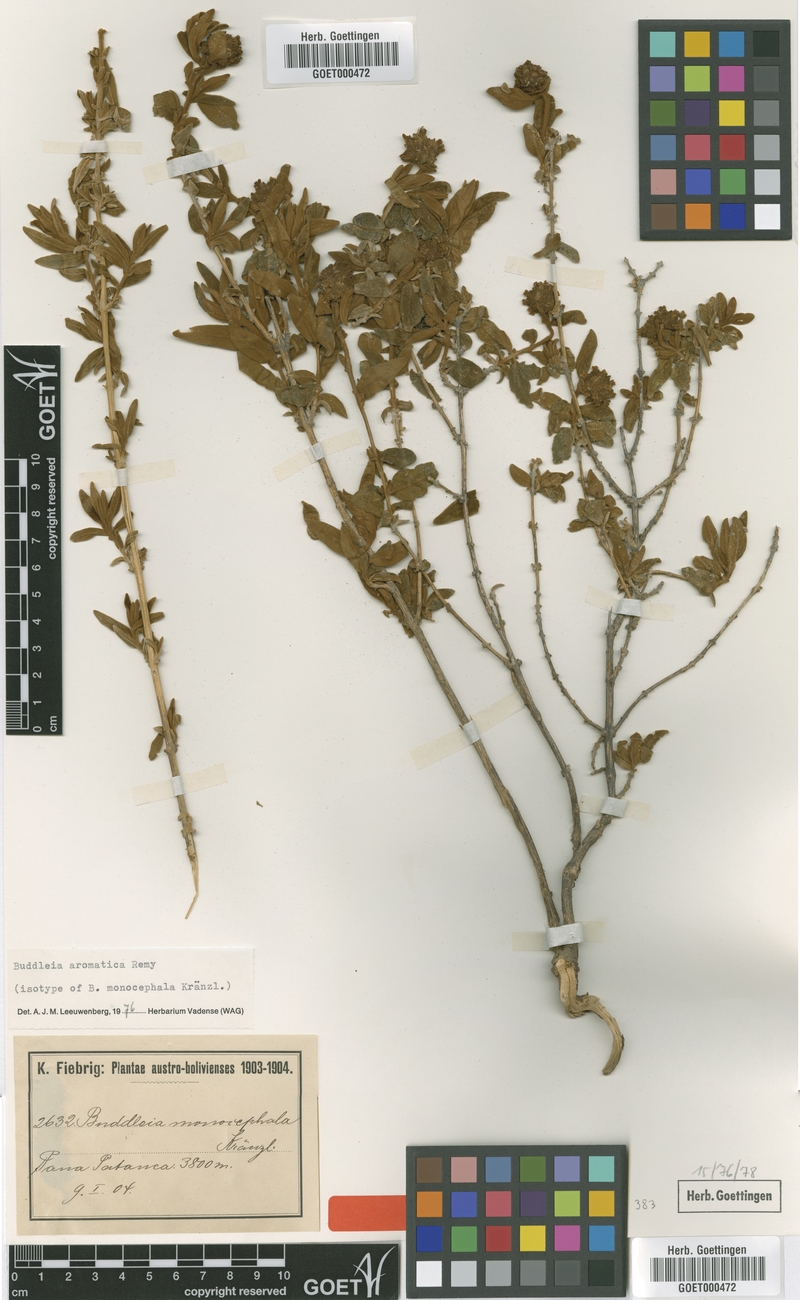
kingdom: Plantae
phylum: Tracheophyta
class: Magnoliopsida
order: Lamiales
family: Scrophulariaceae
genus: Buddleja
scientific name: Buddleja aromatica
